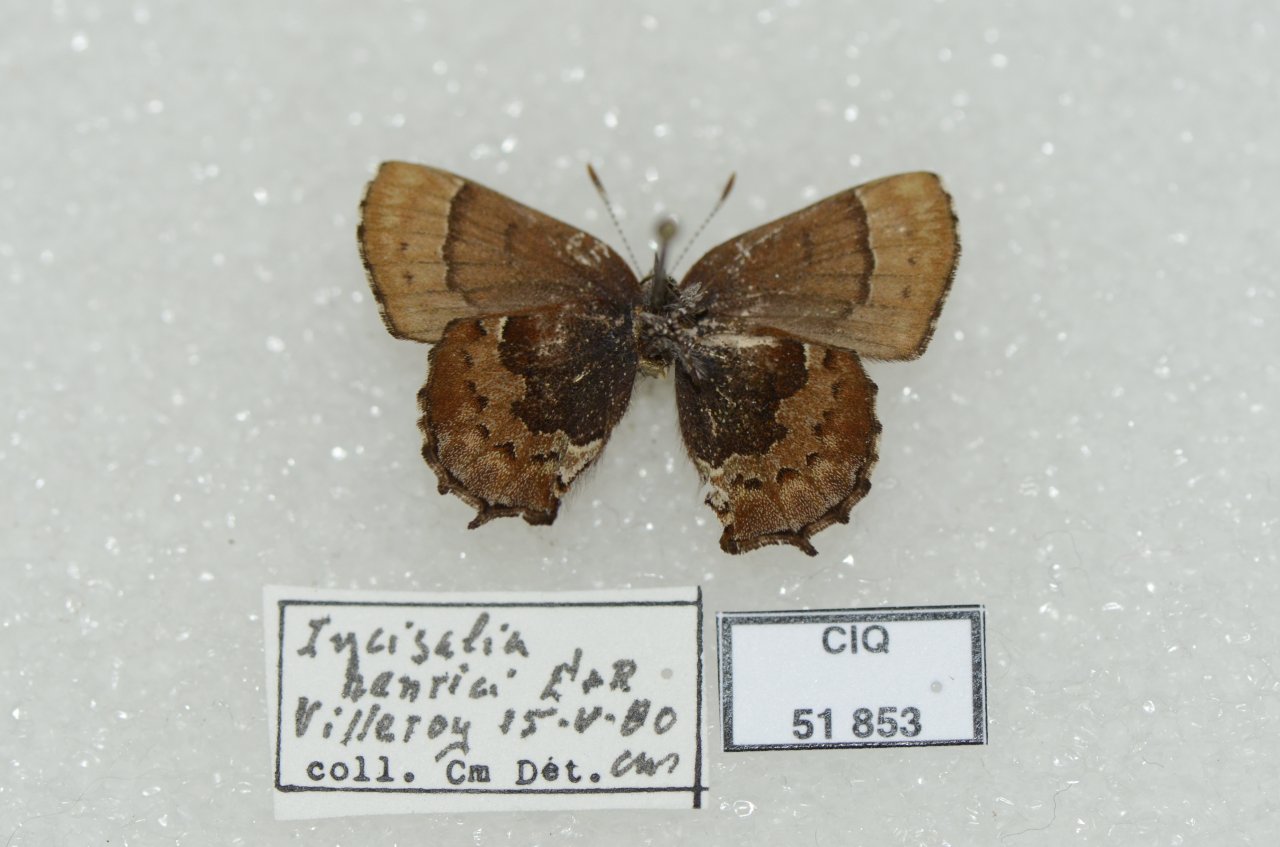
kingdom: Animalia
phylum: Arthropoda
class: Insecta
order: Lepidoptera
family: Lycaenidae
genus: Incisalia
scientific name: Incisalia henrici
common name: Henry's Elfin
